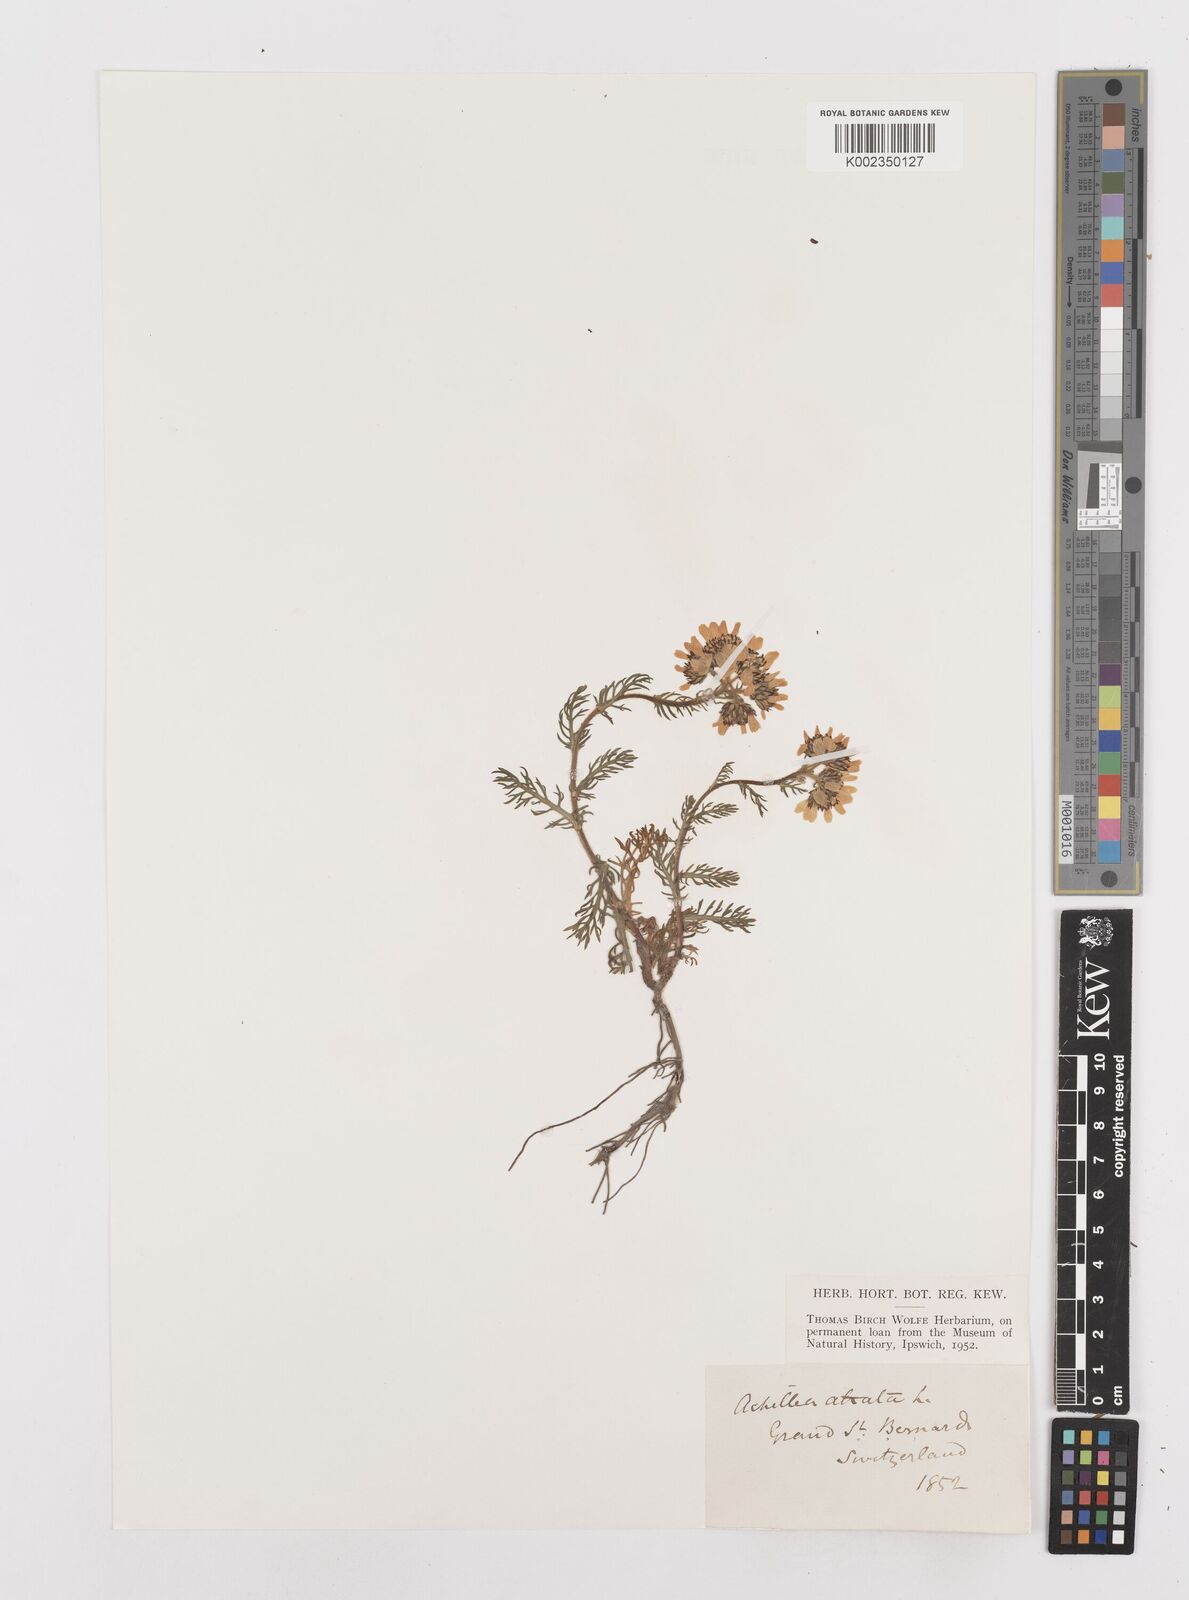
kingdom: Plantae
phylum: Tracheophyta
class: Magnoliopsida
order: Asterales
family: Asteraceae
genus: Achillea
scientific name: Achillea atrata
